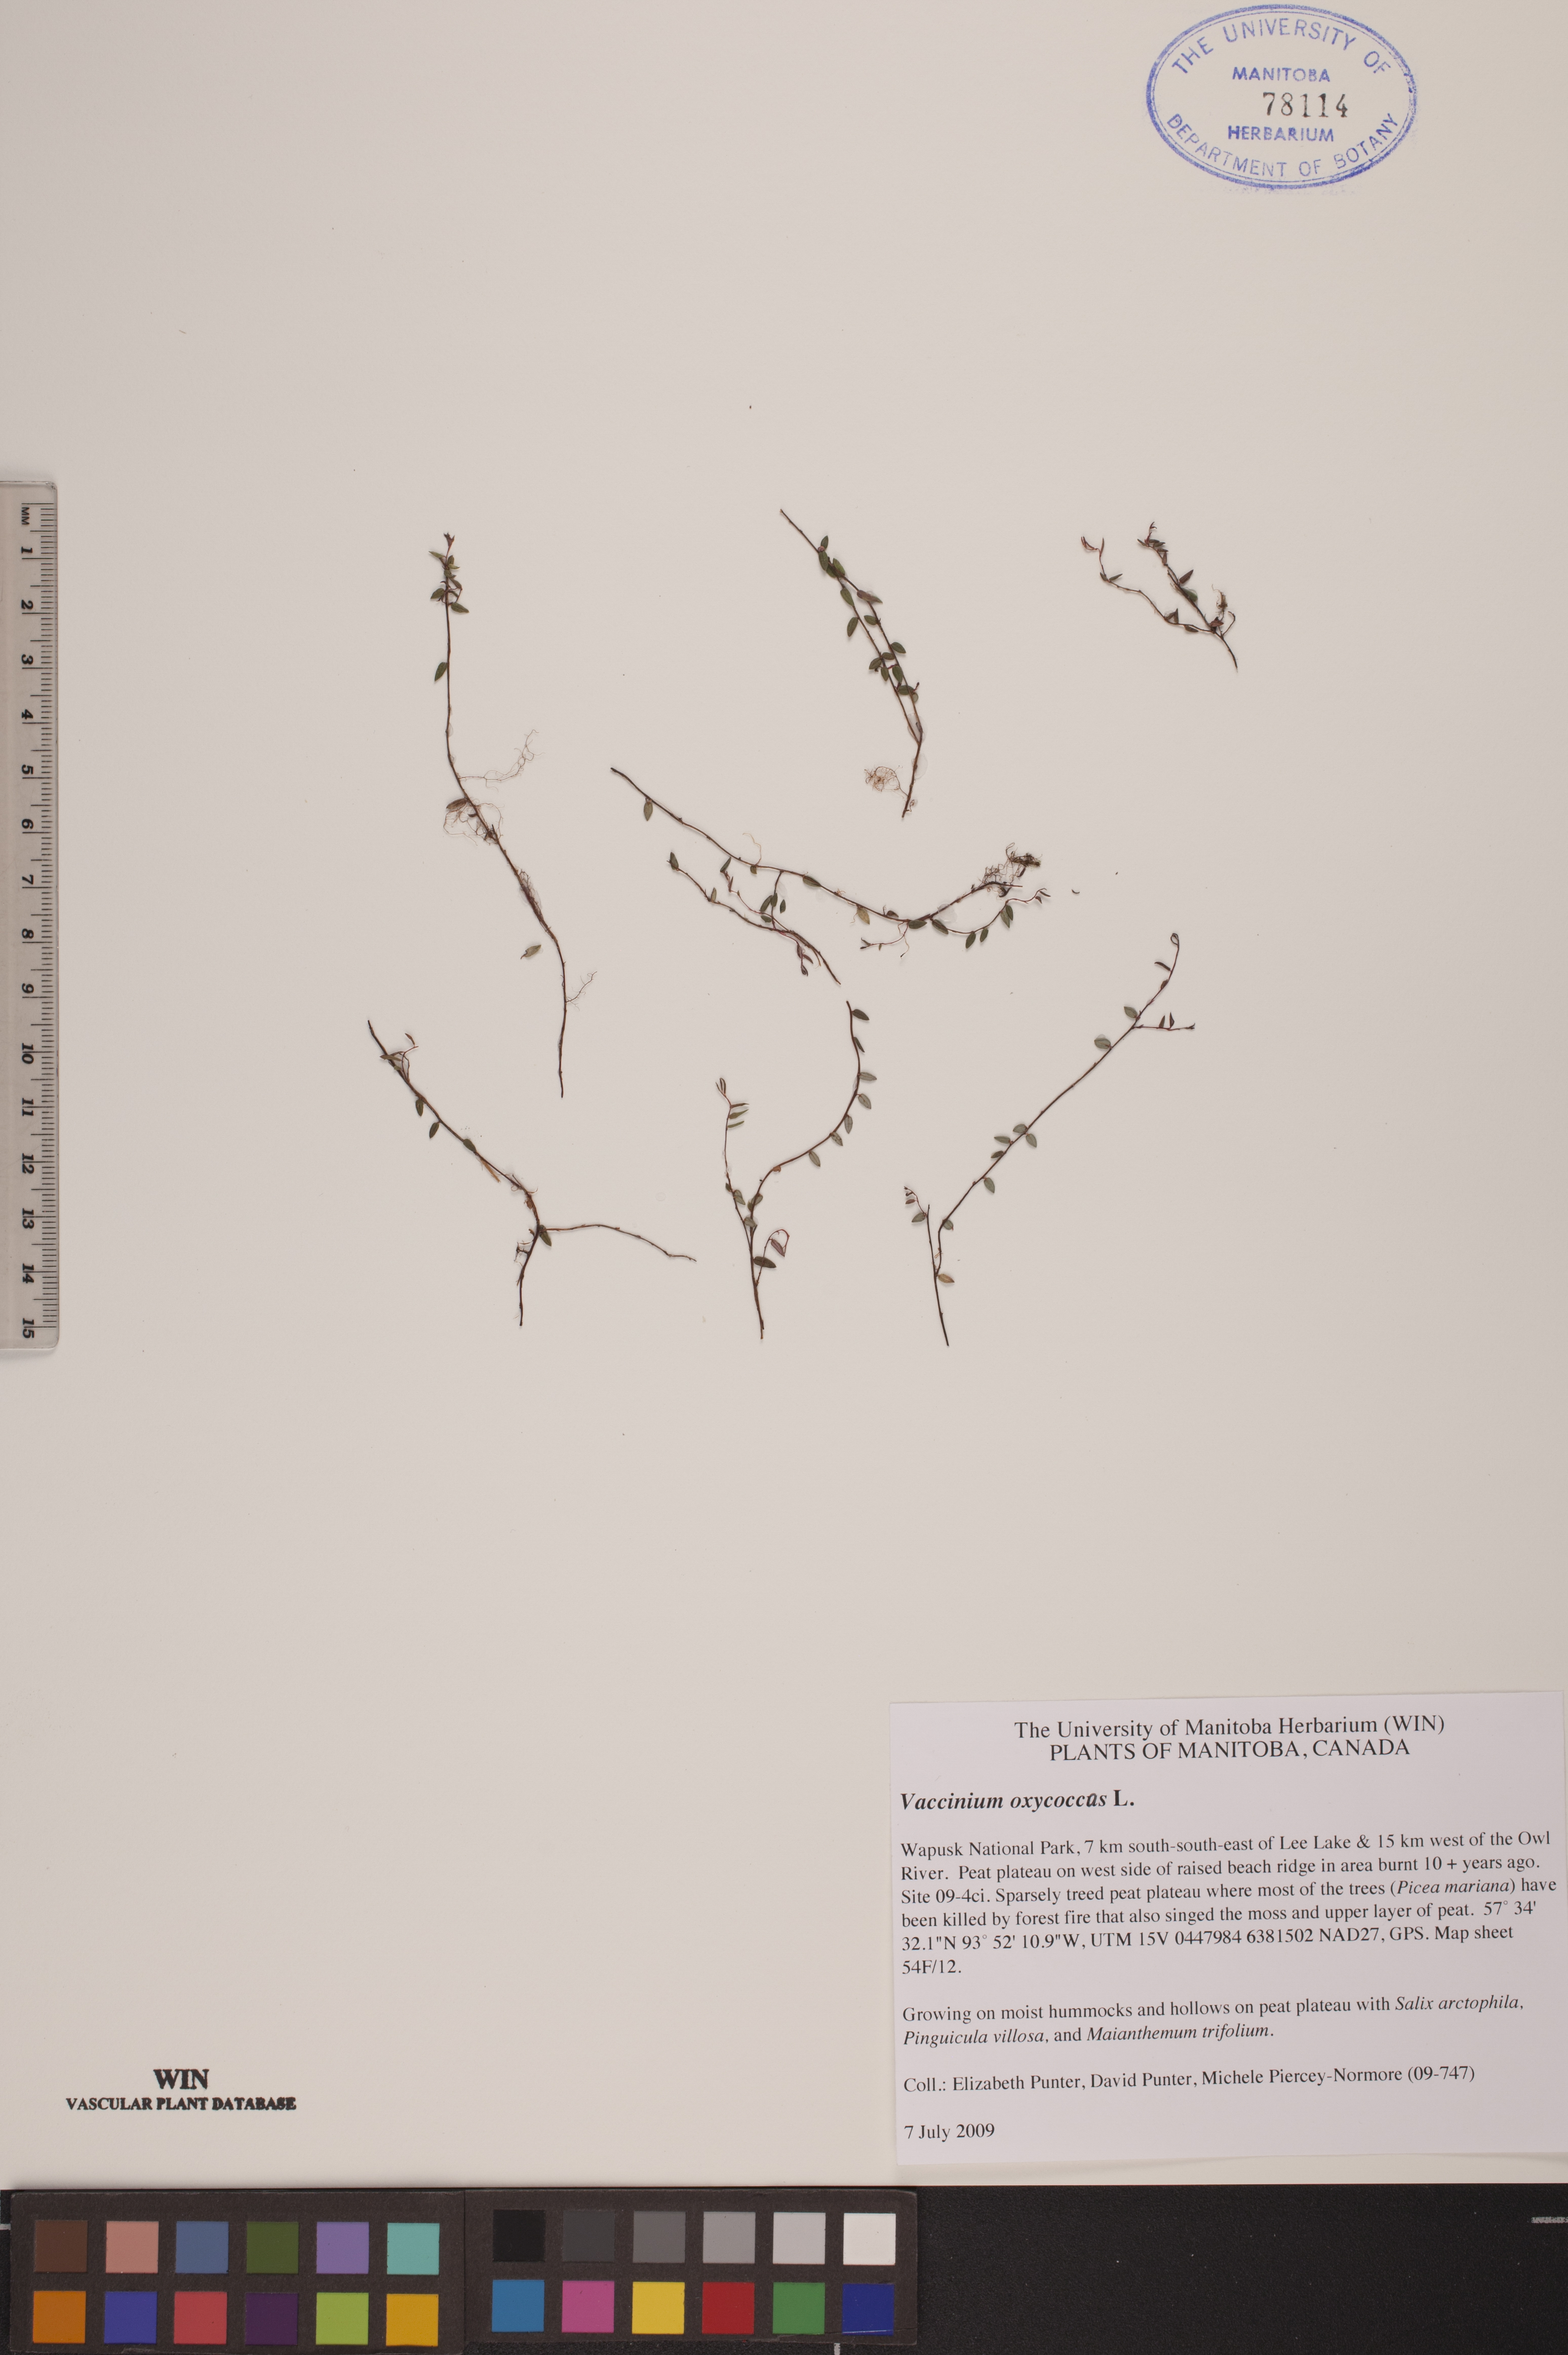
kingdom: Plantae
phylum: Tracheophyta
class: Magnoliopsida
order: Ericales
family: Ericaceae
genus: Vaccinium
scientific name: Vaccinium oxycoccos
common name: Cranberry
